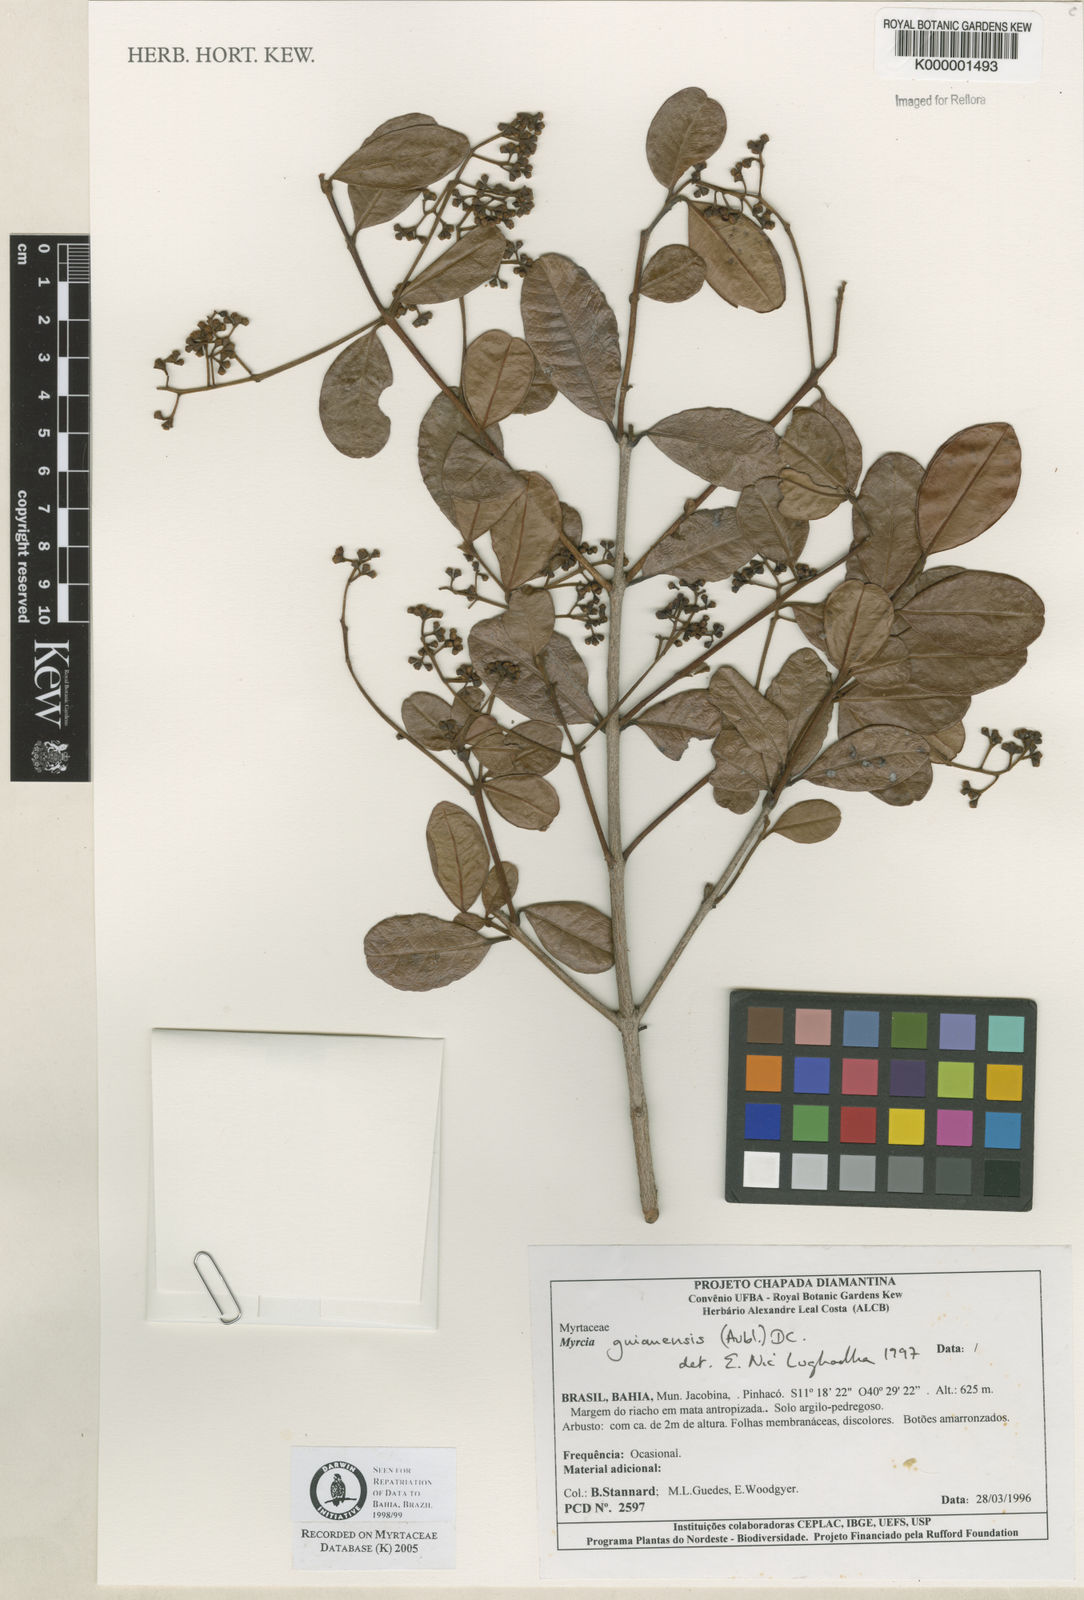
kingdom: Plantae
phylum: Tracheophyta
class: Magnoliopsida
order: Myrtales
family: Myrtaceae
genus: Myrcia
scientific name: Myrcia guianensis
